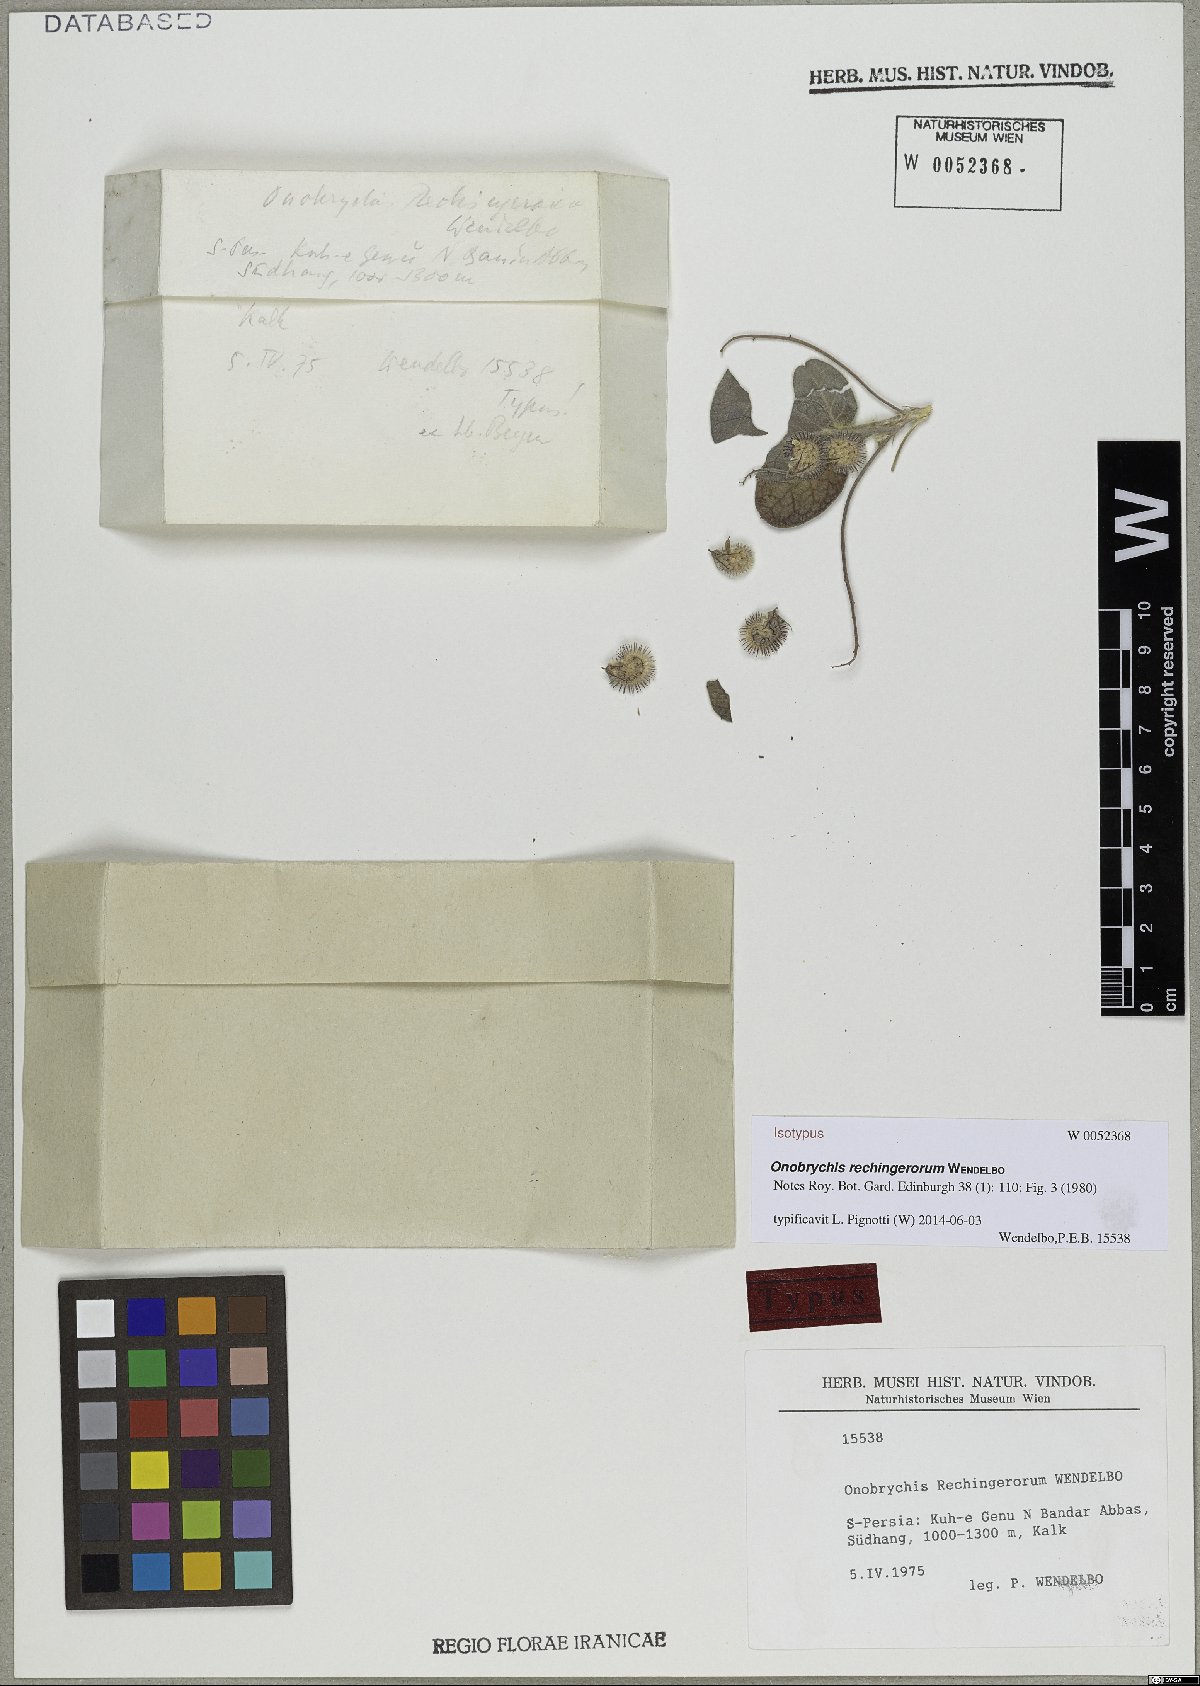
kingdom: Plantae
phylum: Tracheophyta
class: Magnoliopsida
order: Fabales
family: Fabaceae
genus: Onobrychis
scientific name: Onobrychis rechingerorum
